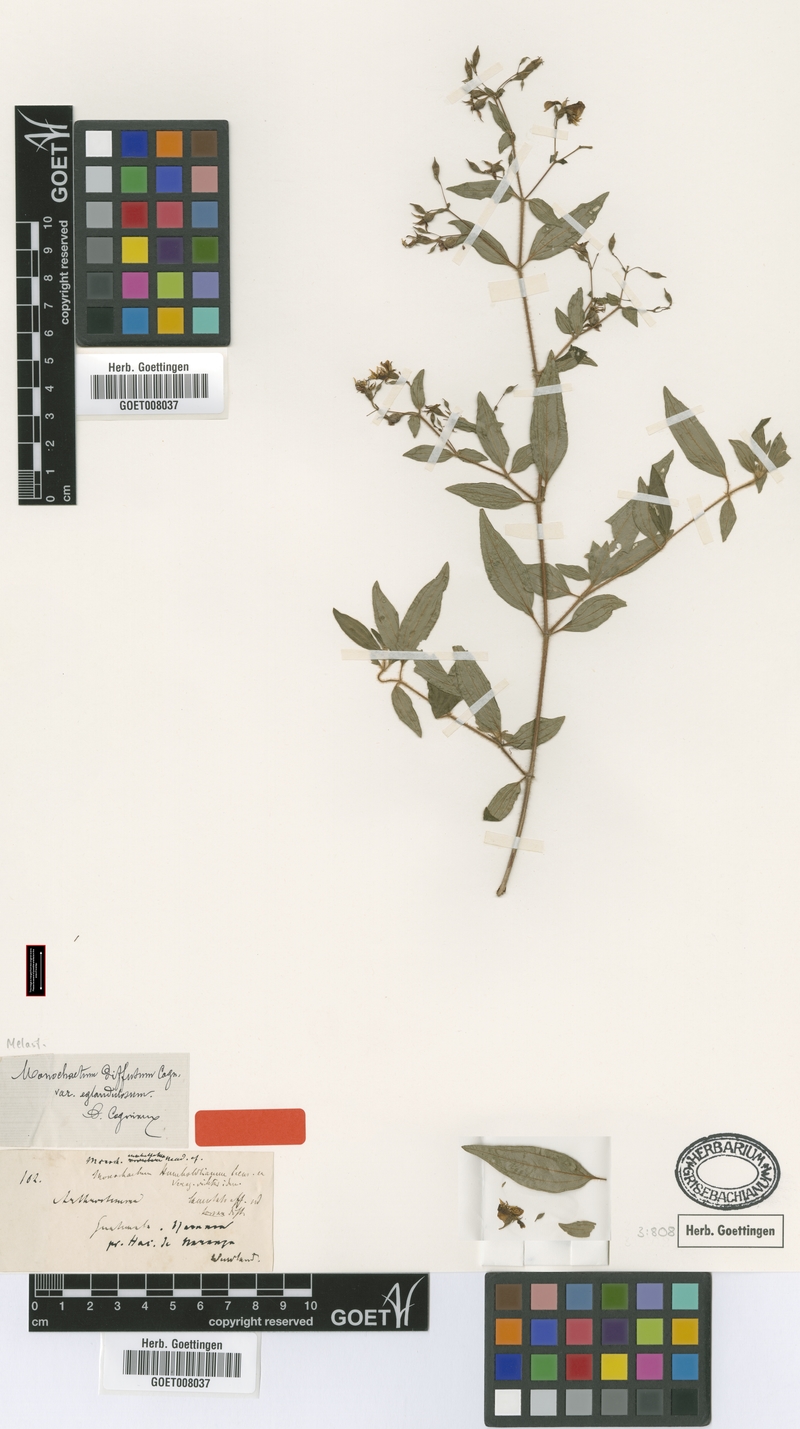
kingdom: Plantae
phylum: Tracheophyta
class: Magnoliopsida
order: Myrtales
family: Melastomataceae
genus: Monochaetum
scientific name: Monochaetum floribundum
